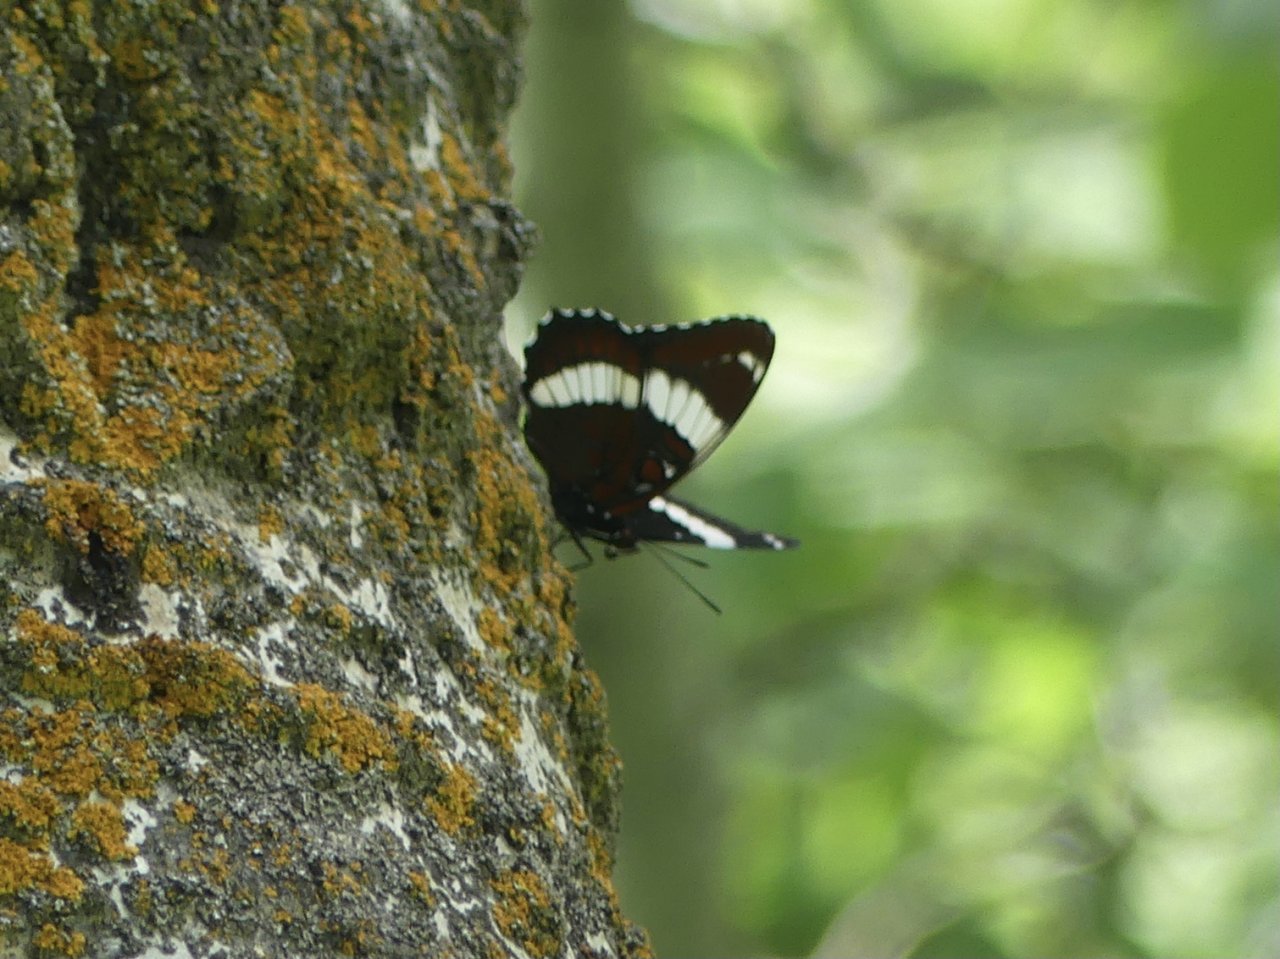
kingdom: Animalia
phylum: Arthropoda
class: Insecta
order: Lepidoptera
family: Nymphalidae
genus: Limenitis
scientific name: Limenitis arthemis
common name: Red-spotted Admiral
